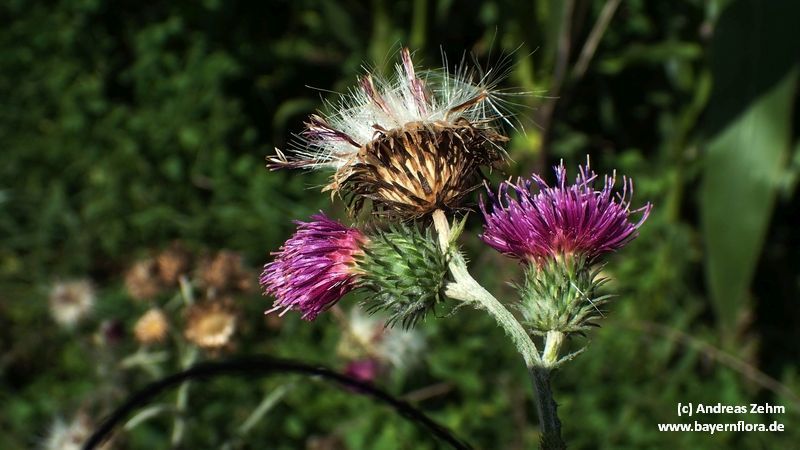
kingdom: Plantae
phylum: Tracheophyta
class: Magnoliopsida
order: Asterales
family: Asteraceae
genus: Carduus
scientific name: Carduus crispus
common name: Welted thistle
